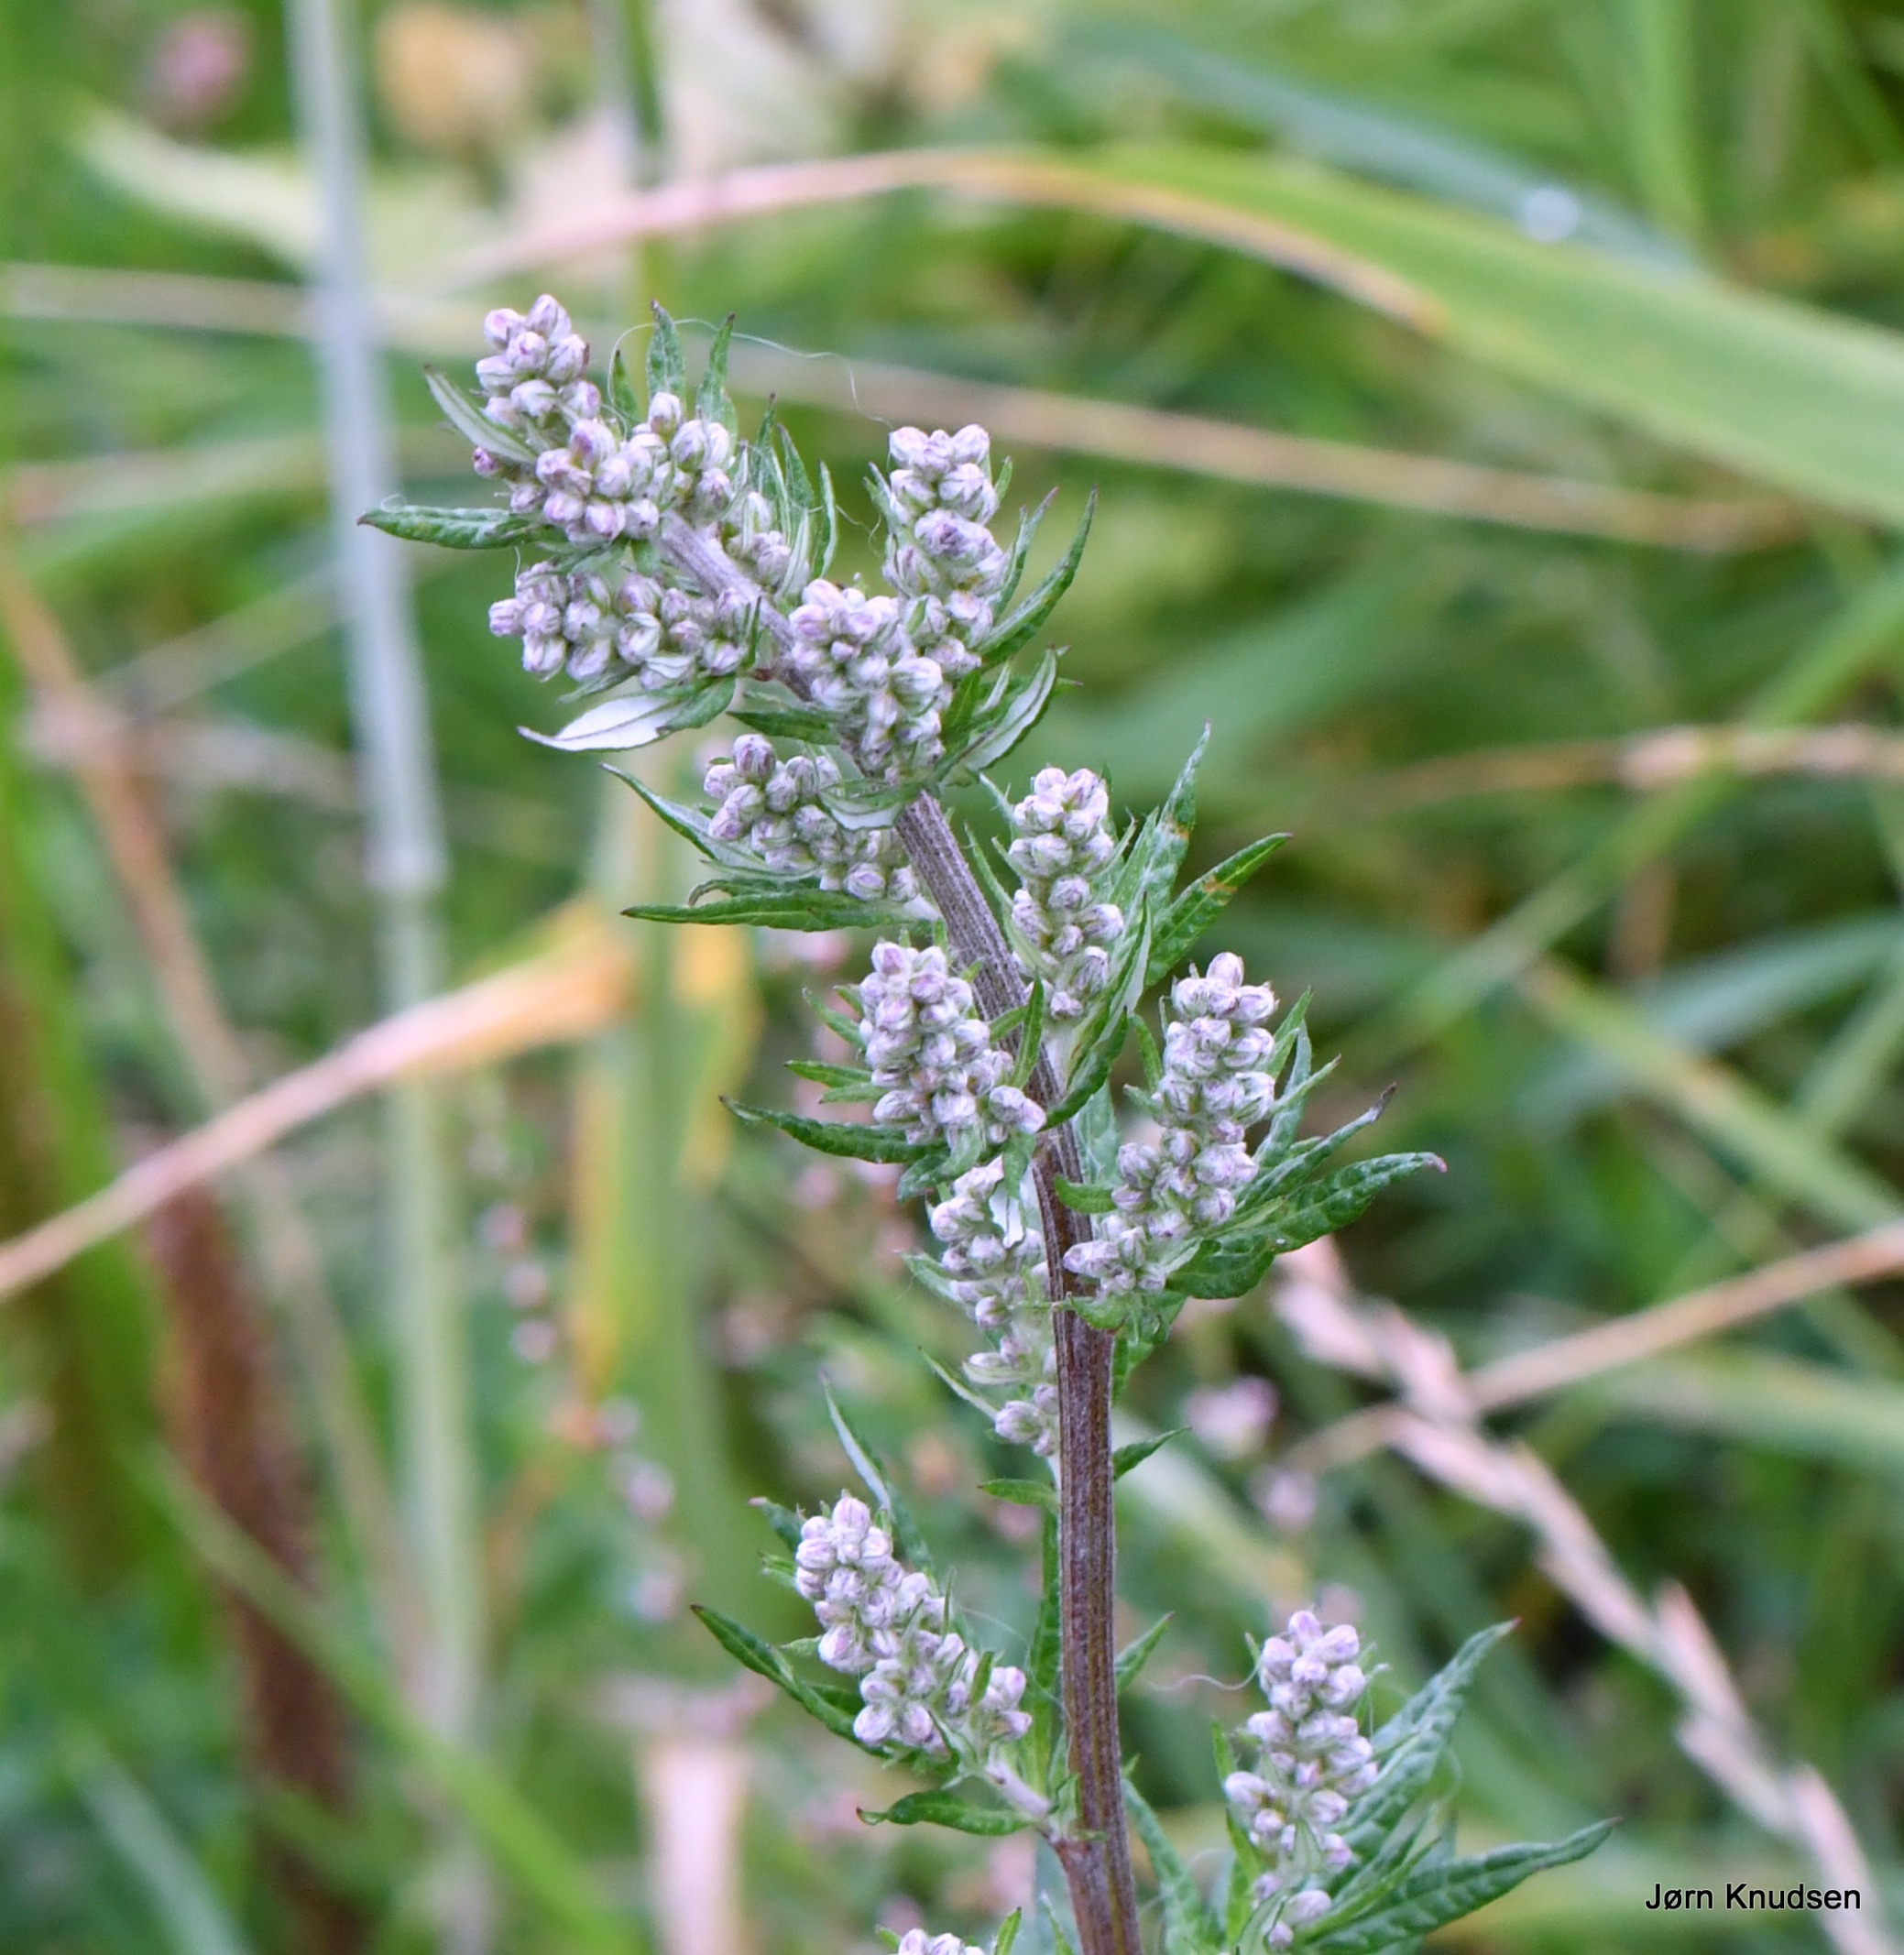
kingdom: Plantae
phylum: Tracheophyta
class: Magnoliopsida
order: Asterales
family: Asteraceae
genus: Artemisia
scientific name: Artemisia vulgaris
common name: Grå-bynke
